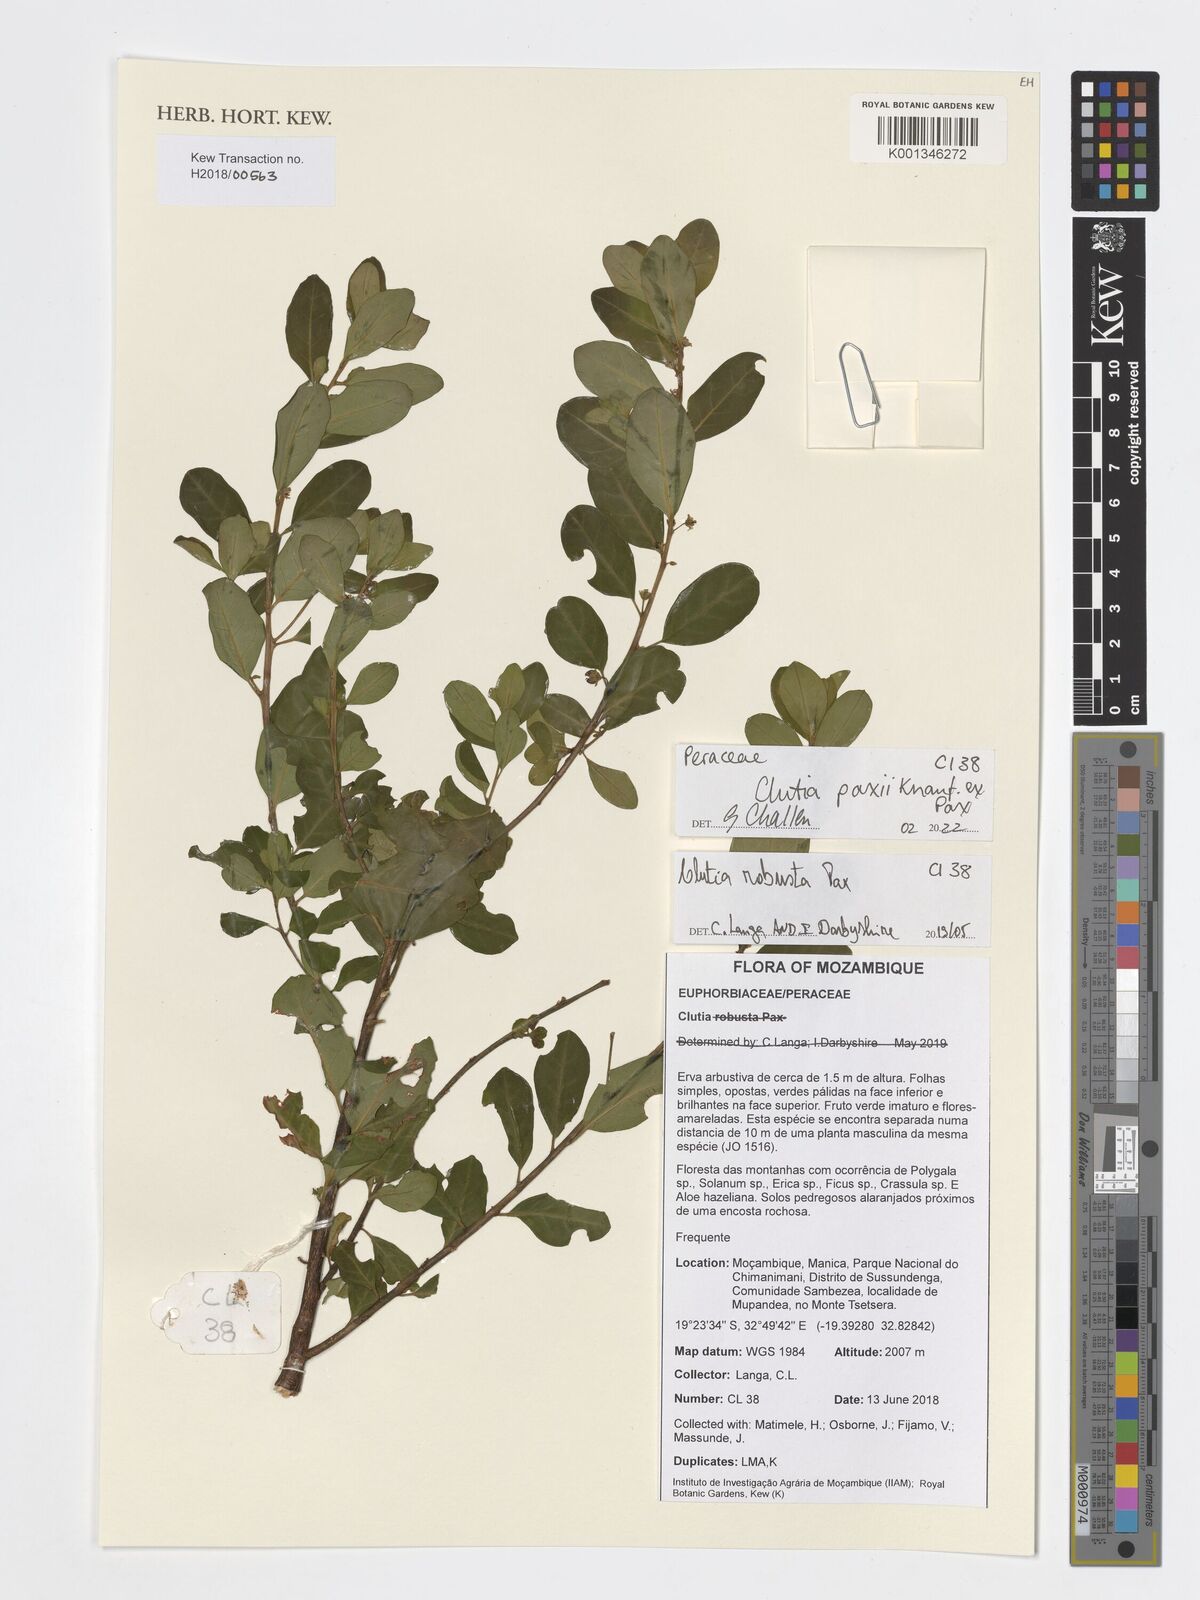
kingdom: Plantae
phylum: Tracheophyta
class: Magnoliopsida
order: Malpighiales
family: Peraceae
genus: Clutia
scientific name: Clutia paxii
